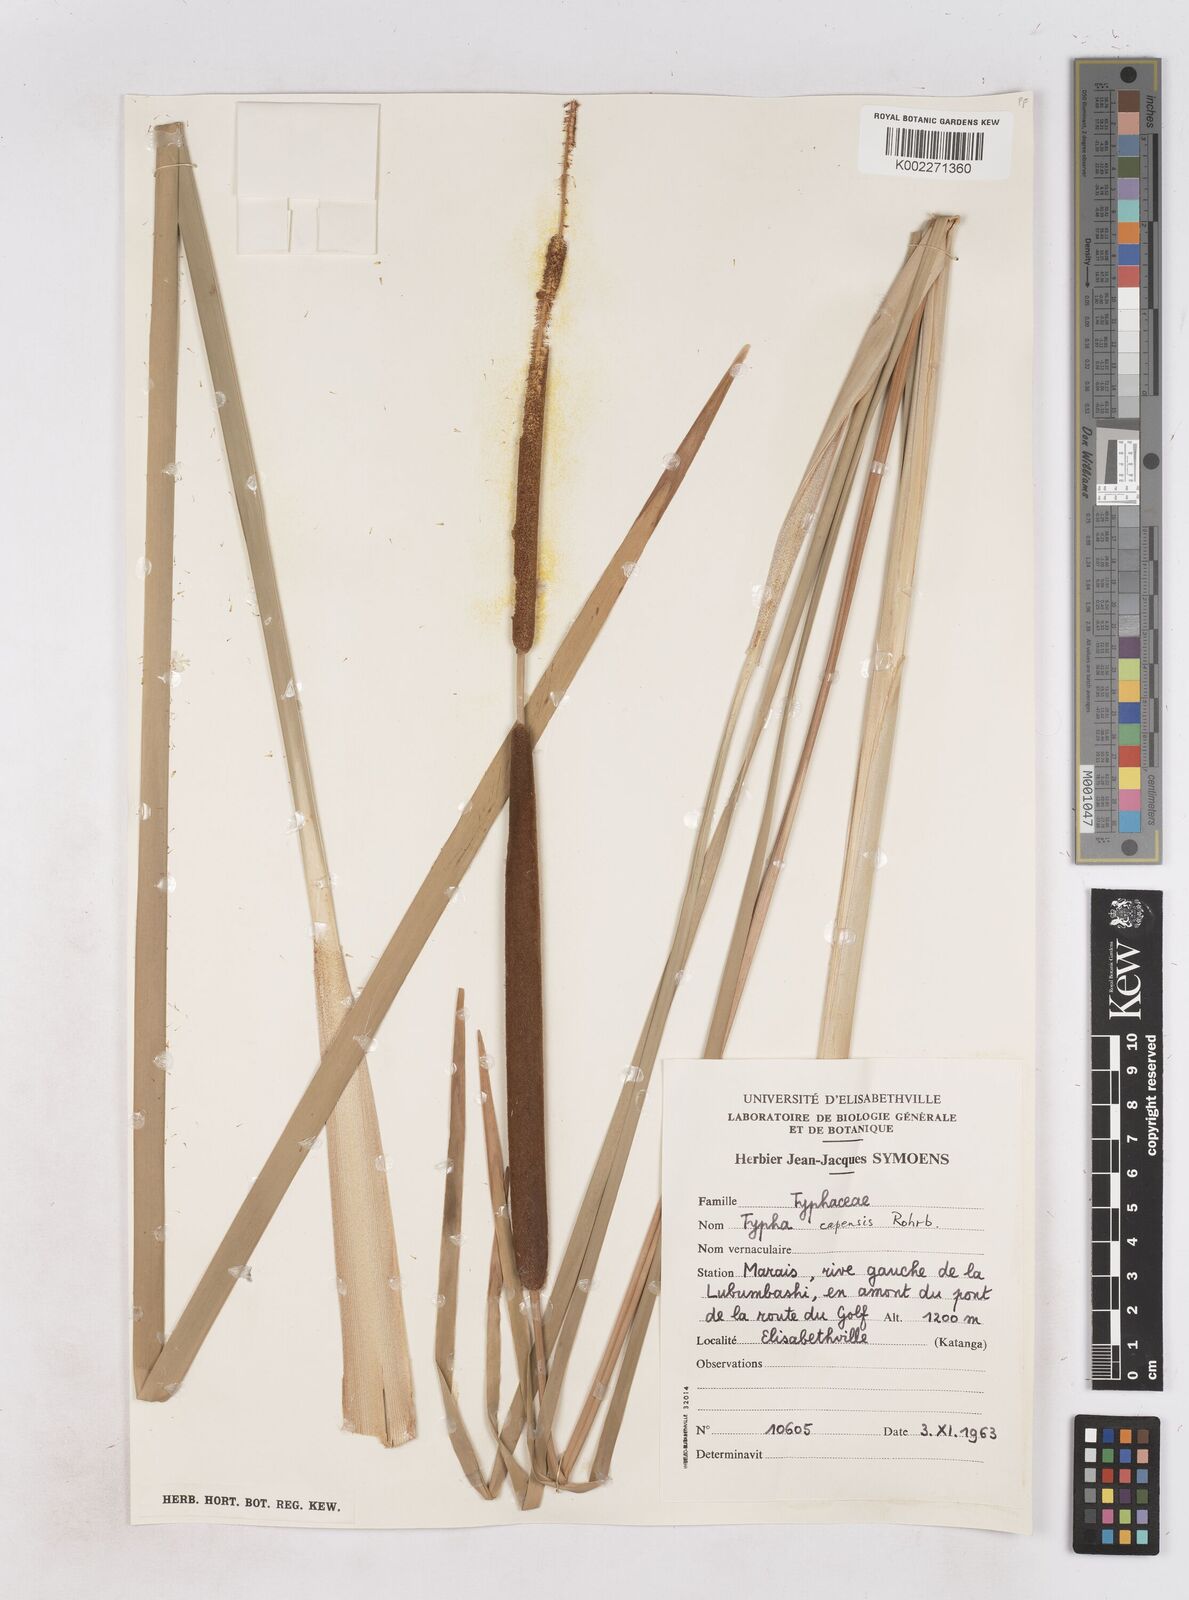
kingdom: Plantae
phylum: Tracheophyta
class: Liliopsida
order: Poales
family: Typhaceae
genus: Typha
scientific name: Typha capensis
